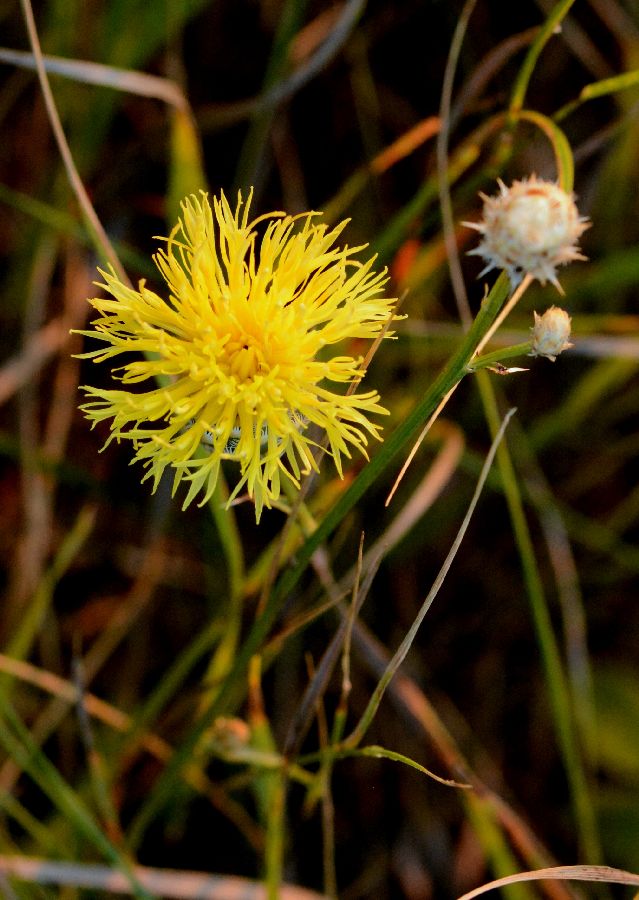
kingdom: Plantae
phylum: Tracheophyta
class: Magnoliopsida
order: Asterales
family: Asteraceae
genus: Centaurea
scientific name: Centaurea orientalis
